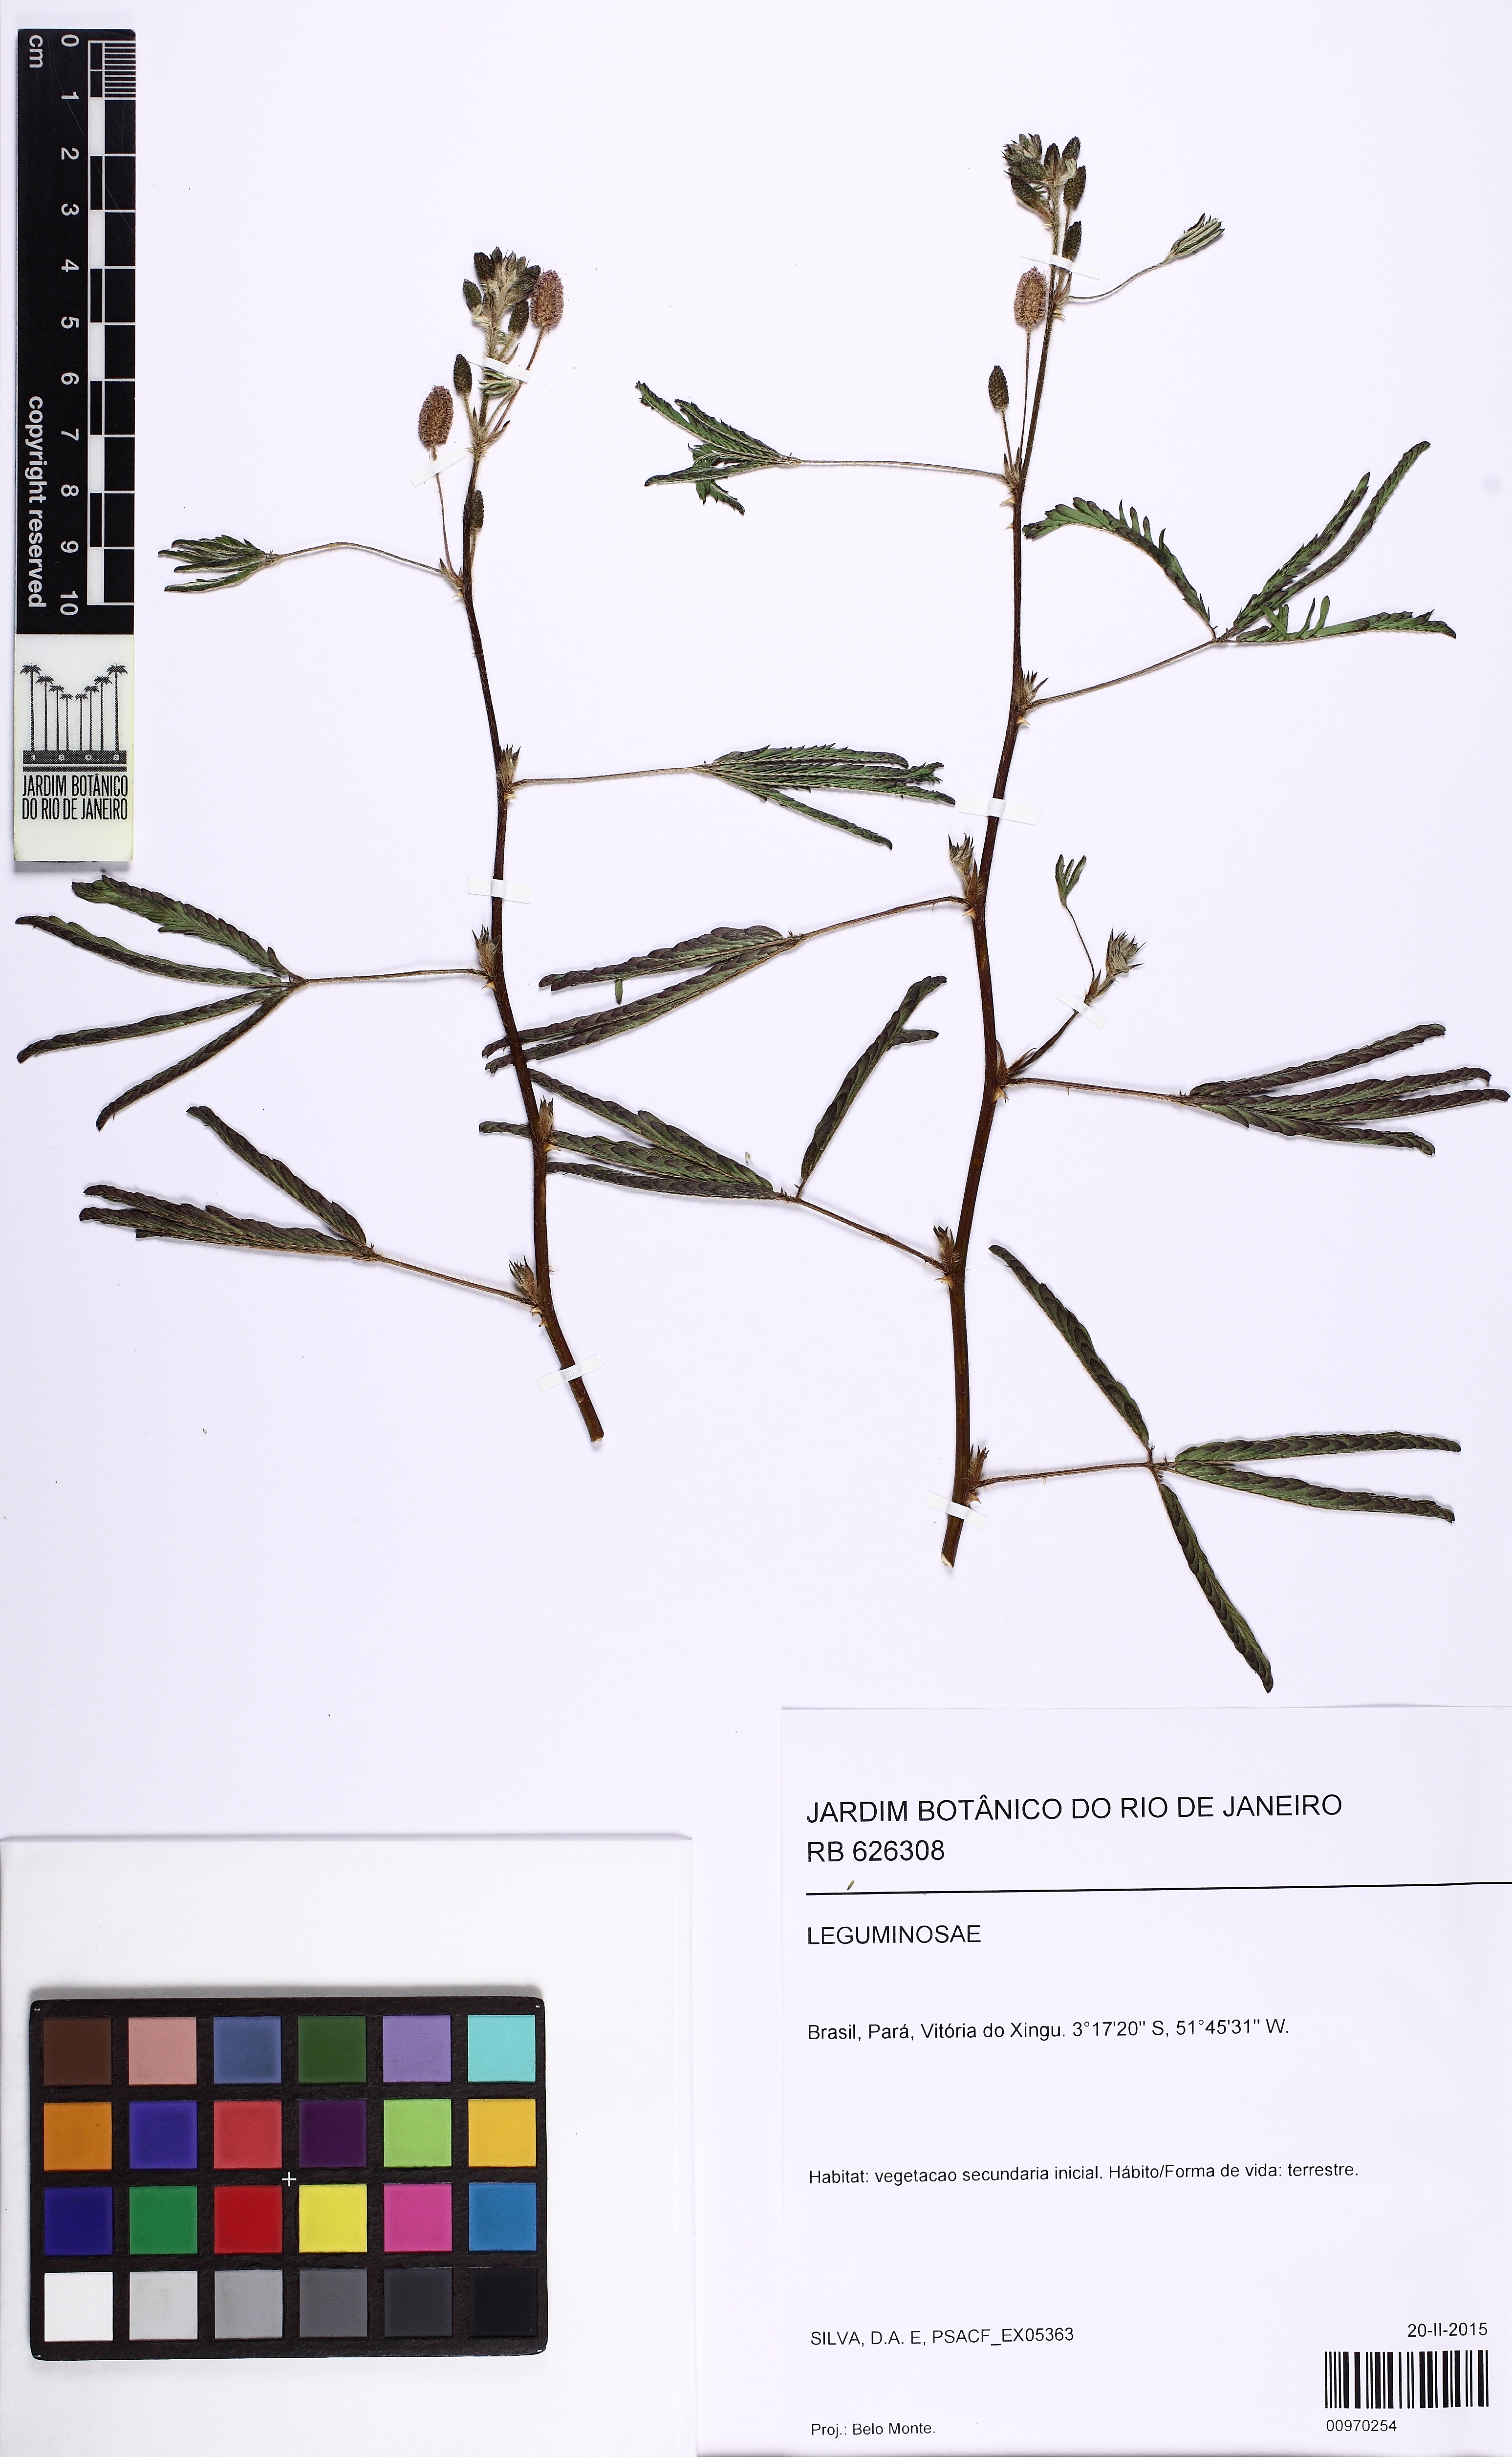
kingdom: Plantae
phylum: Tracheophyta
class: Magnoliopsida
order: Fabales
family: Fabaceae
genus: Mimosa
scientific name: Mimosa pudica
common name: Sensitive plant
